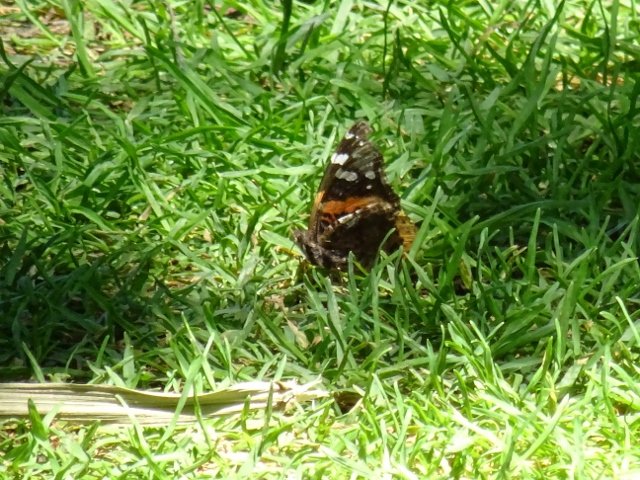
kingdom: Animalia
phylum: Arthropoda
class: Insecta
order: Lepidoptera
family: Nymphalidae
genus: Vanessa
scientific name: Vanessa atalanta
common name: Red Admiral
